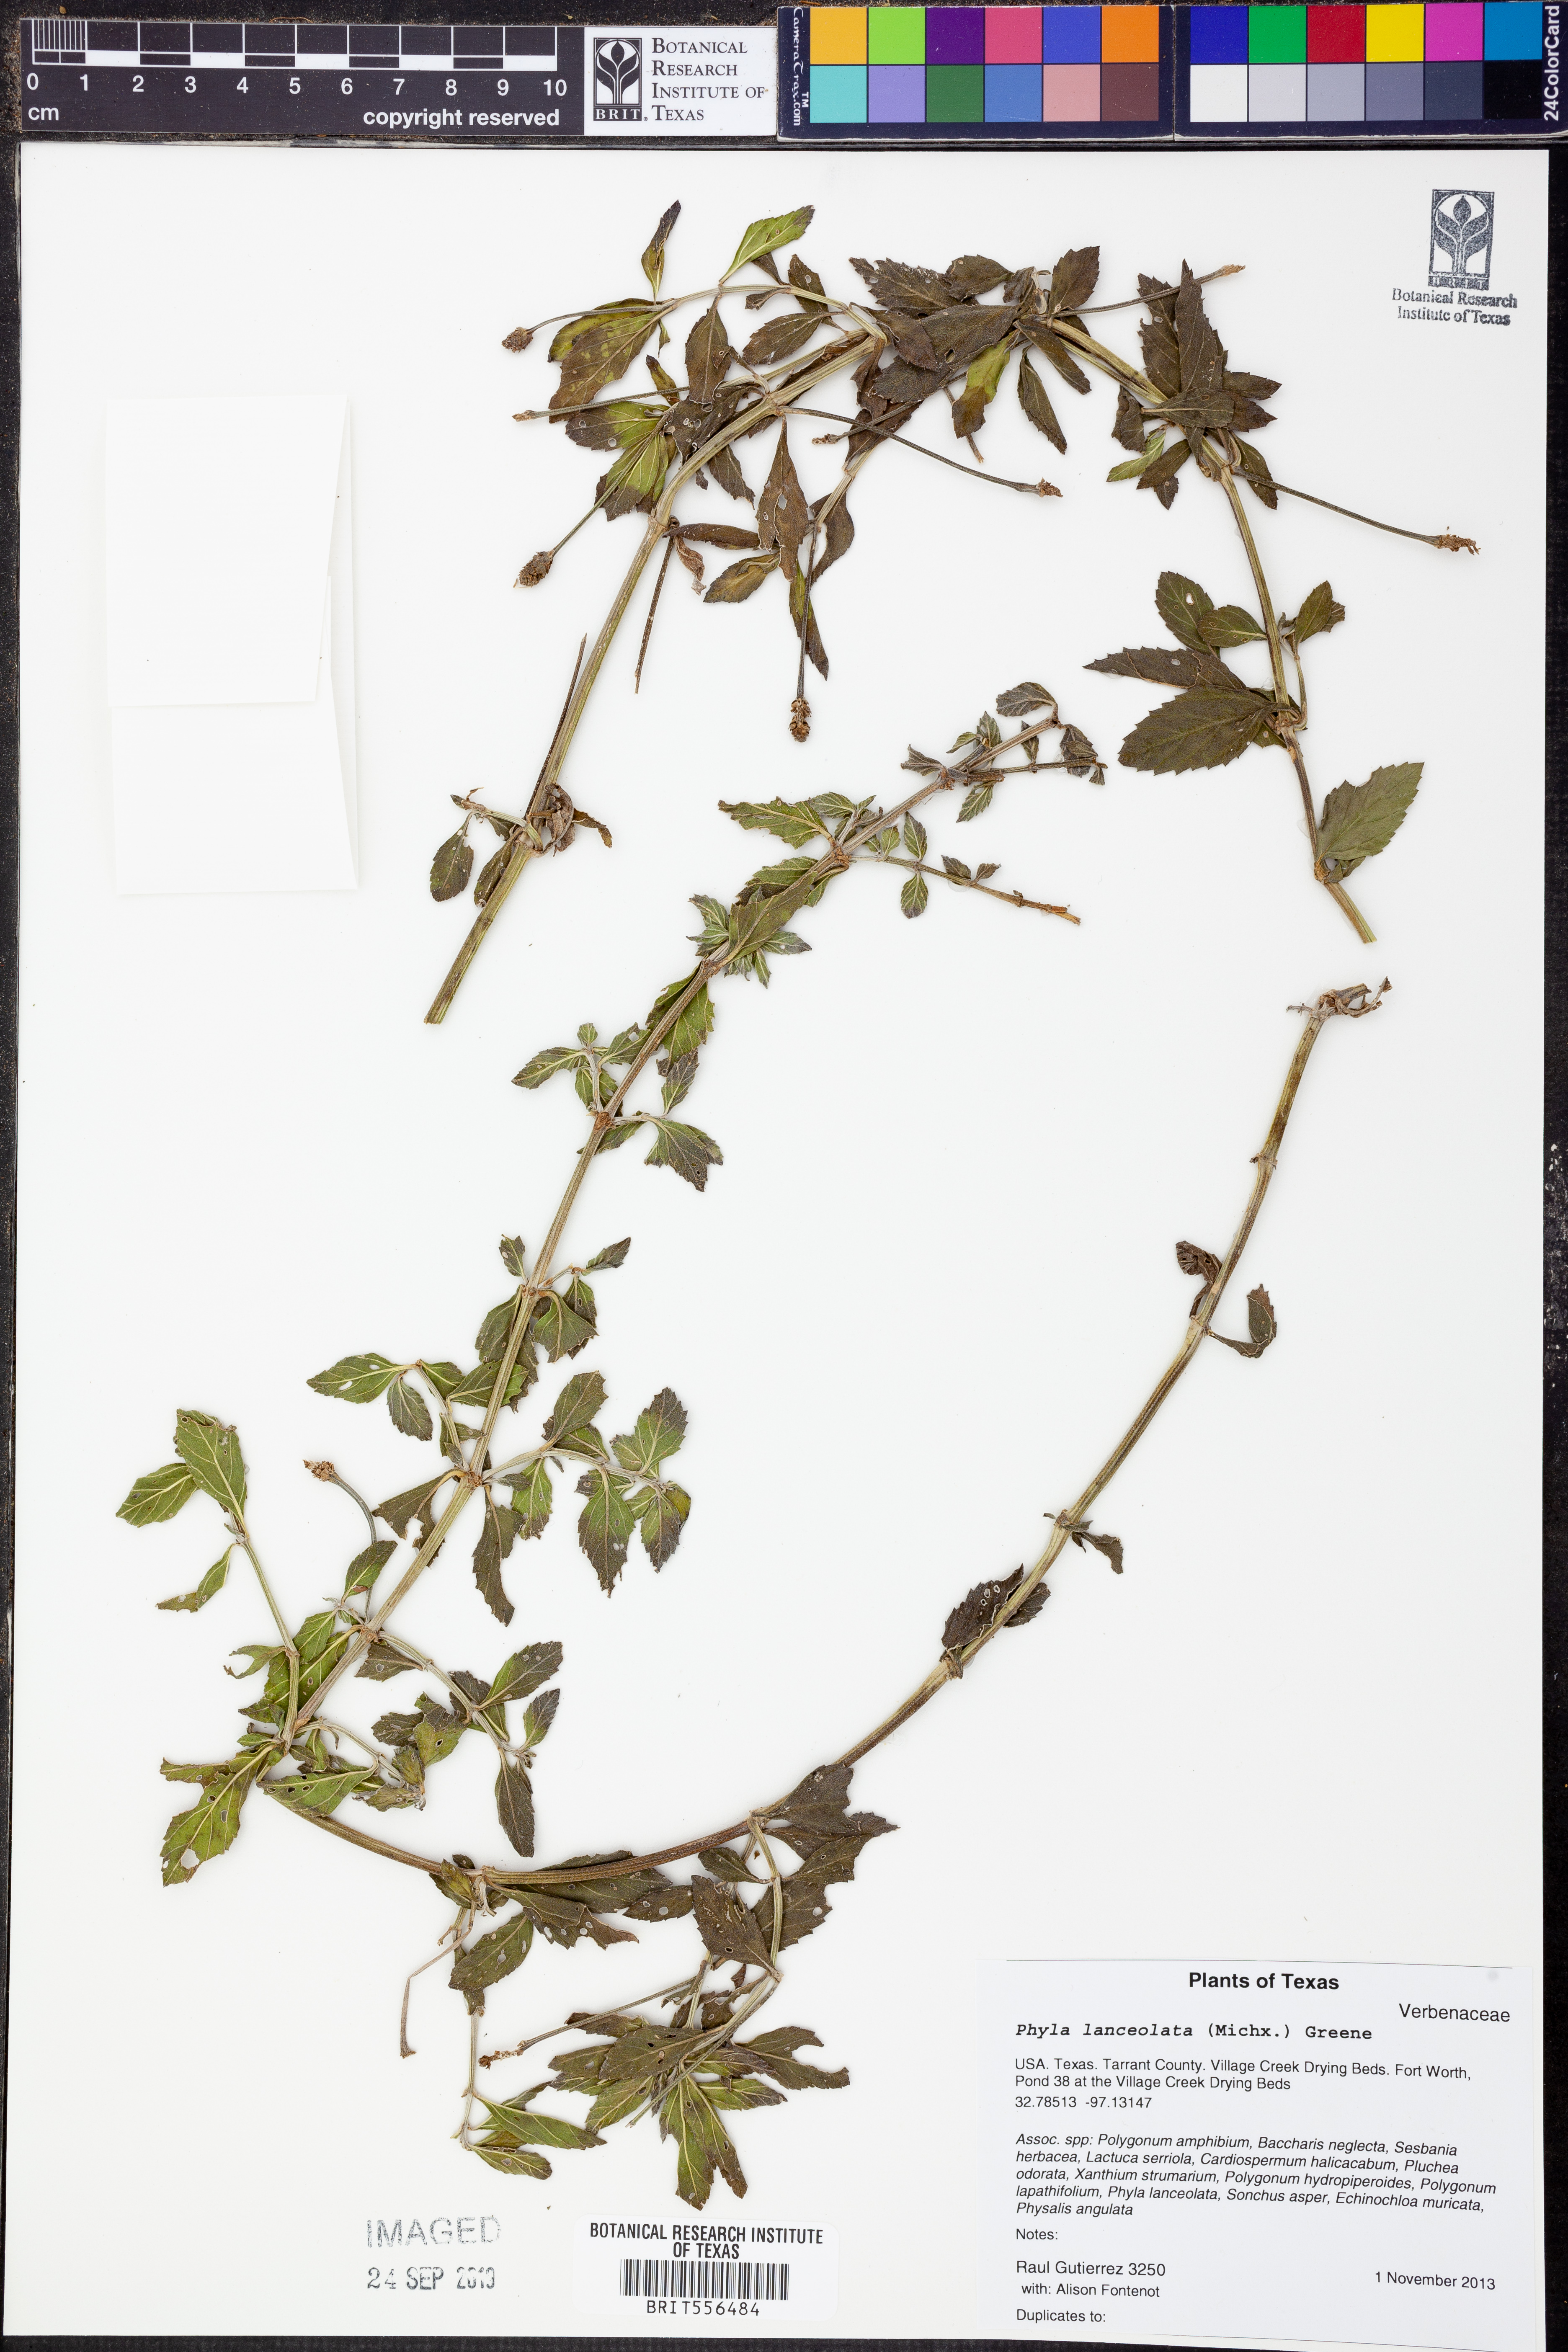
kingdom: Plantae
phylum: Tracheophyta
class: Magnoliopsida
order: Lamiales
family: Verbenaceae
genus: Phyla
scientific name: Phyla lanceolata
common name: Northern fogfruit
